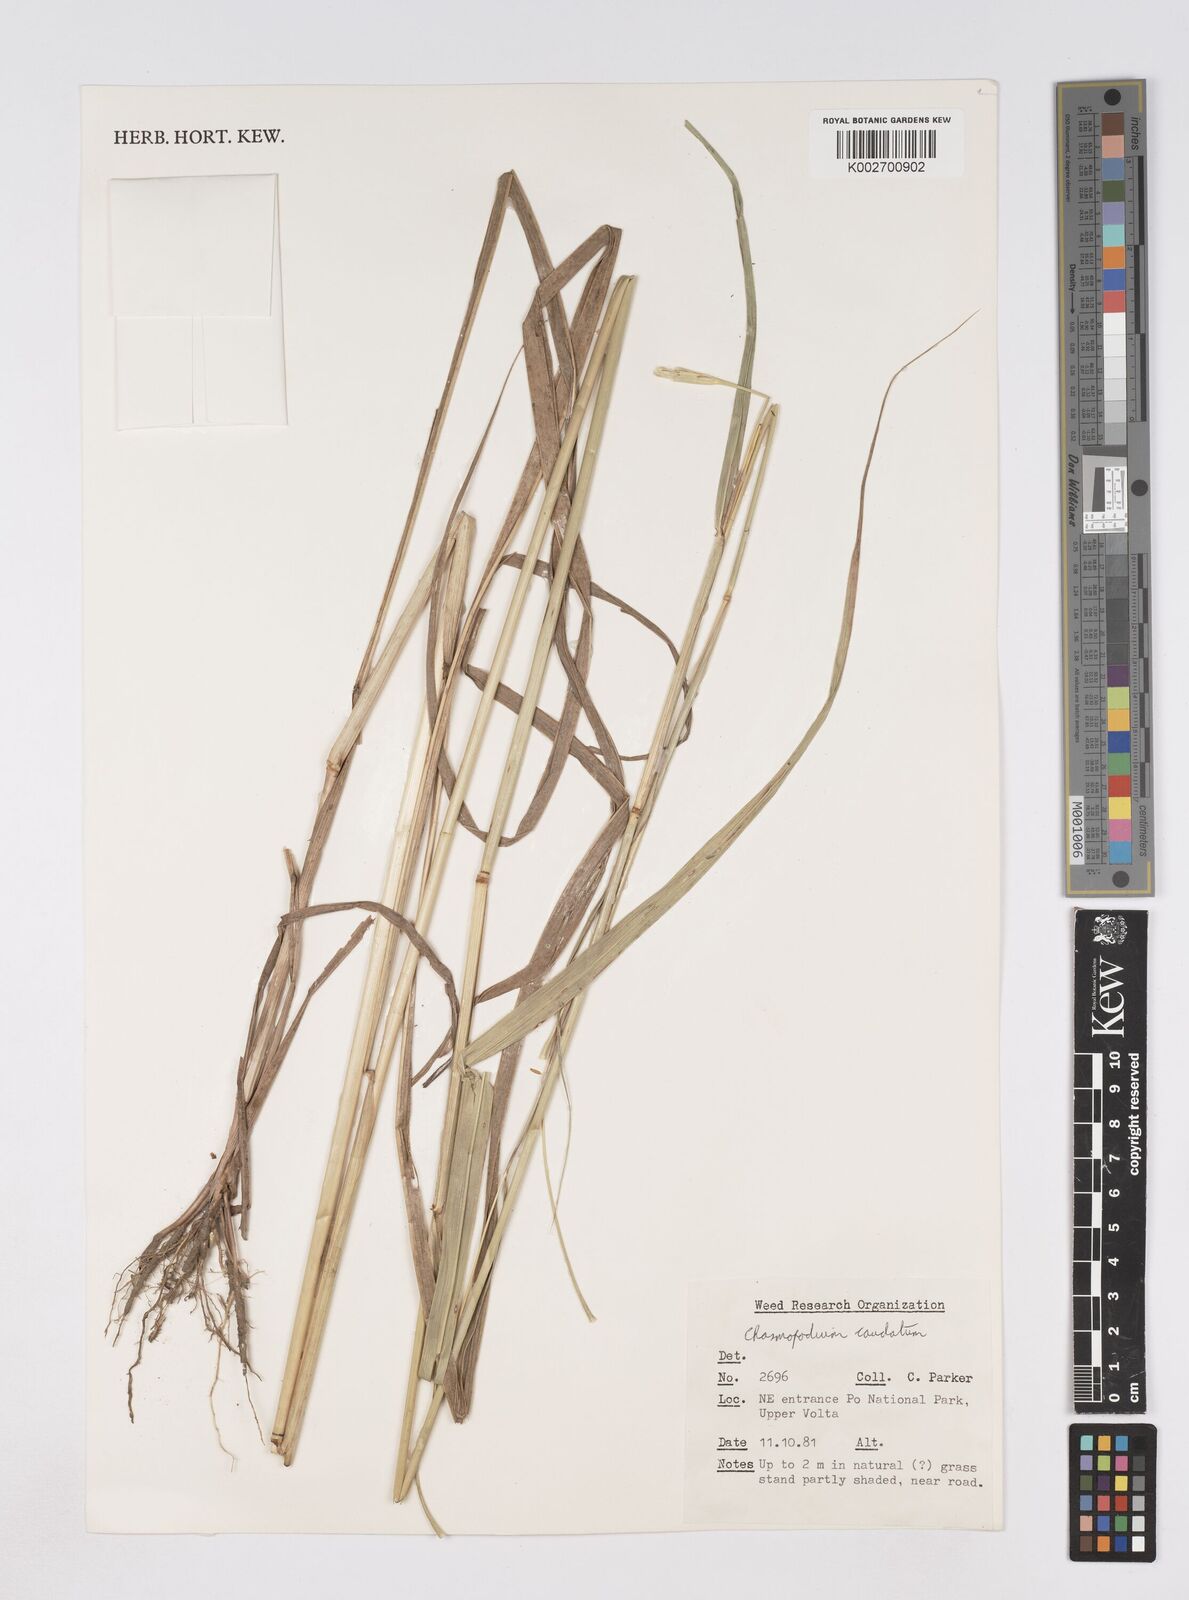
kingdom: Plantae
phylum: Tracheophyta
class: Liliopsida
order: Poales
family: Poaceae
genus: Chasmopodium
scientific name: Chasmopodium caudatum
